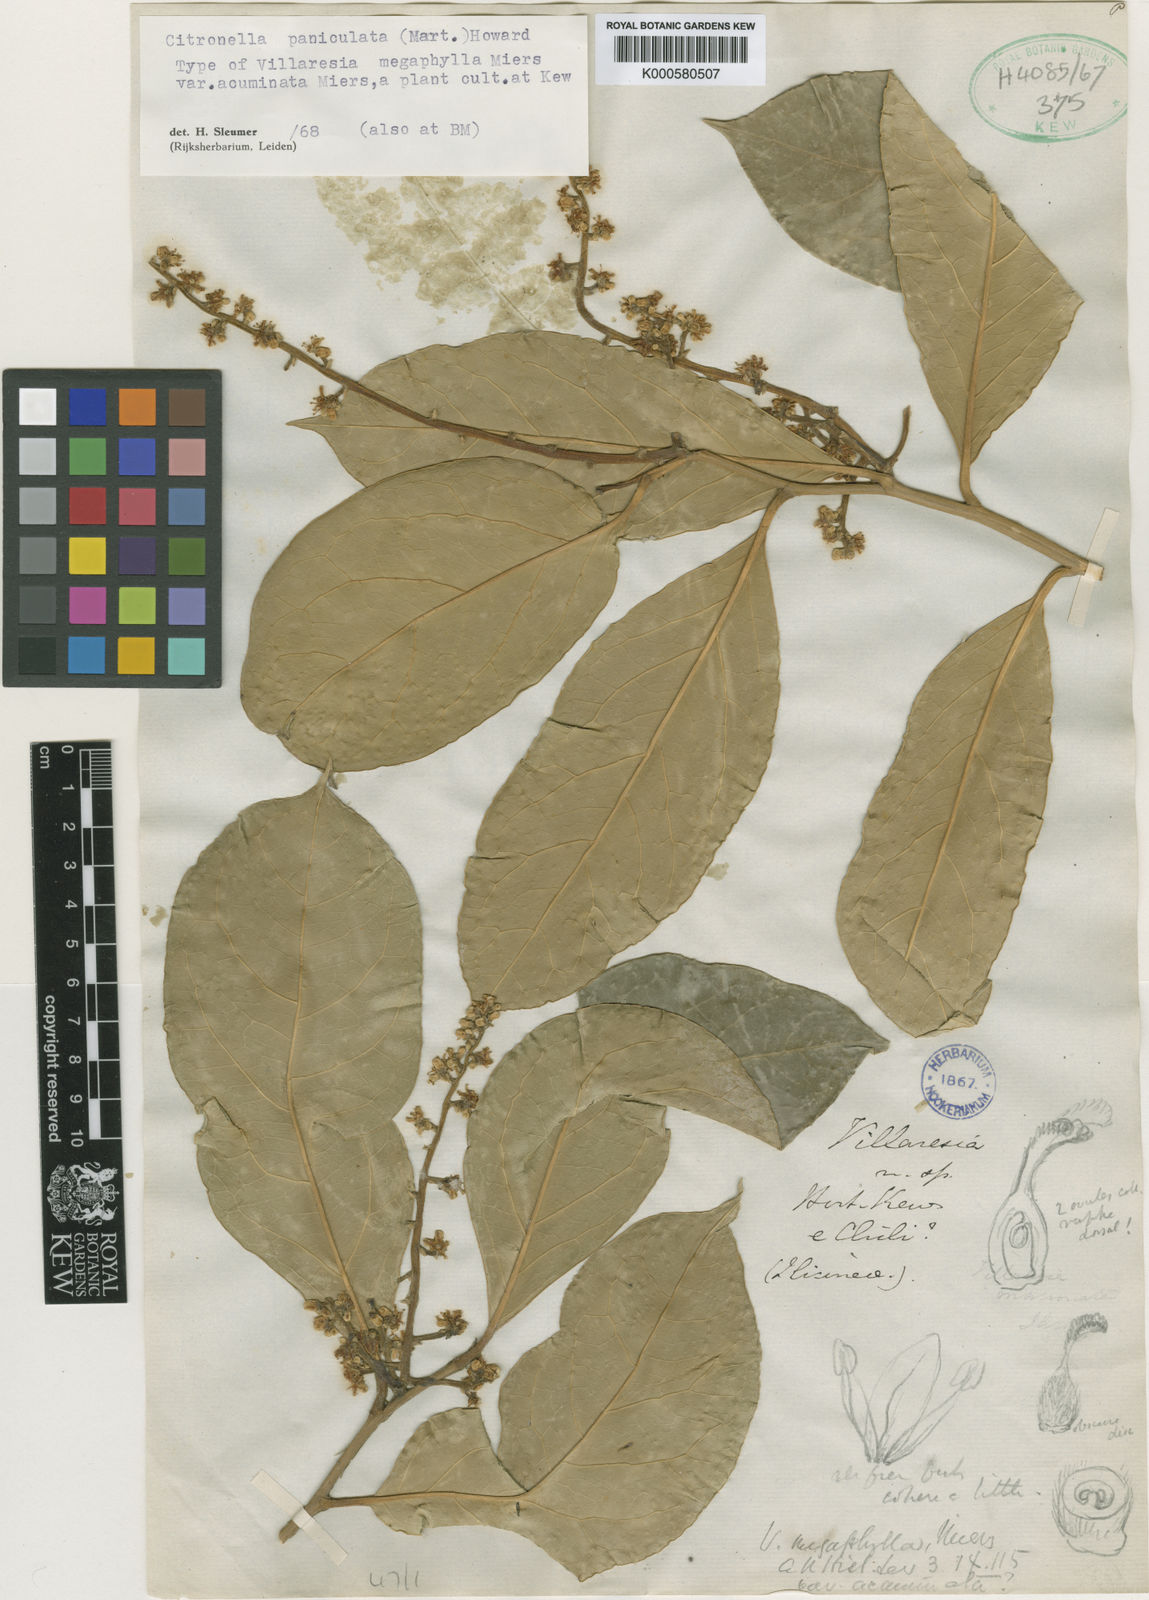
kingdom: Plantae
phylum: Tracheophyta
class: Magnoliopsida
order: Cardiopteridales
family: Cardiopteridaceae
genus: Citronella
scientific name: Citronella paniculata
